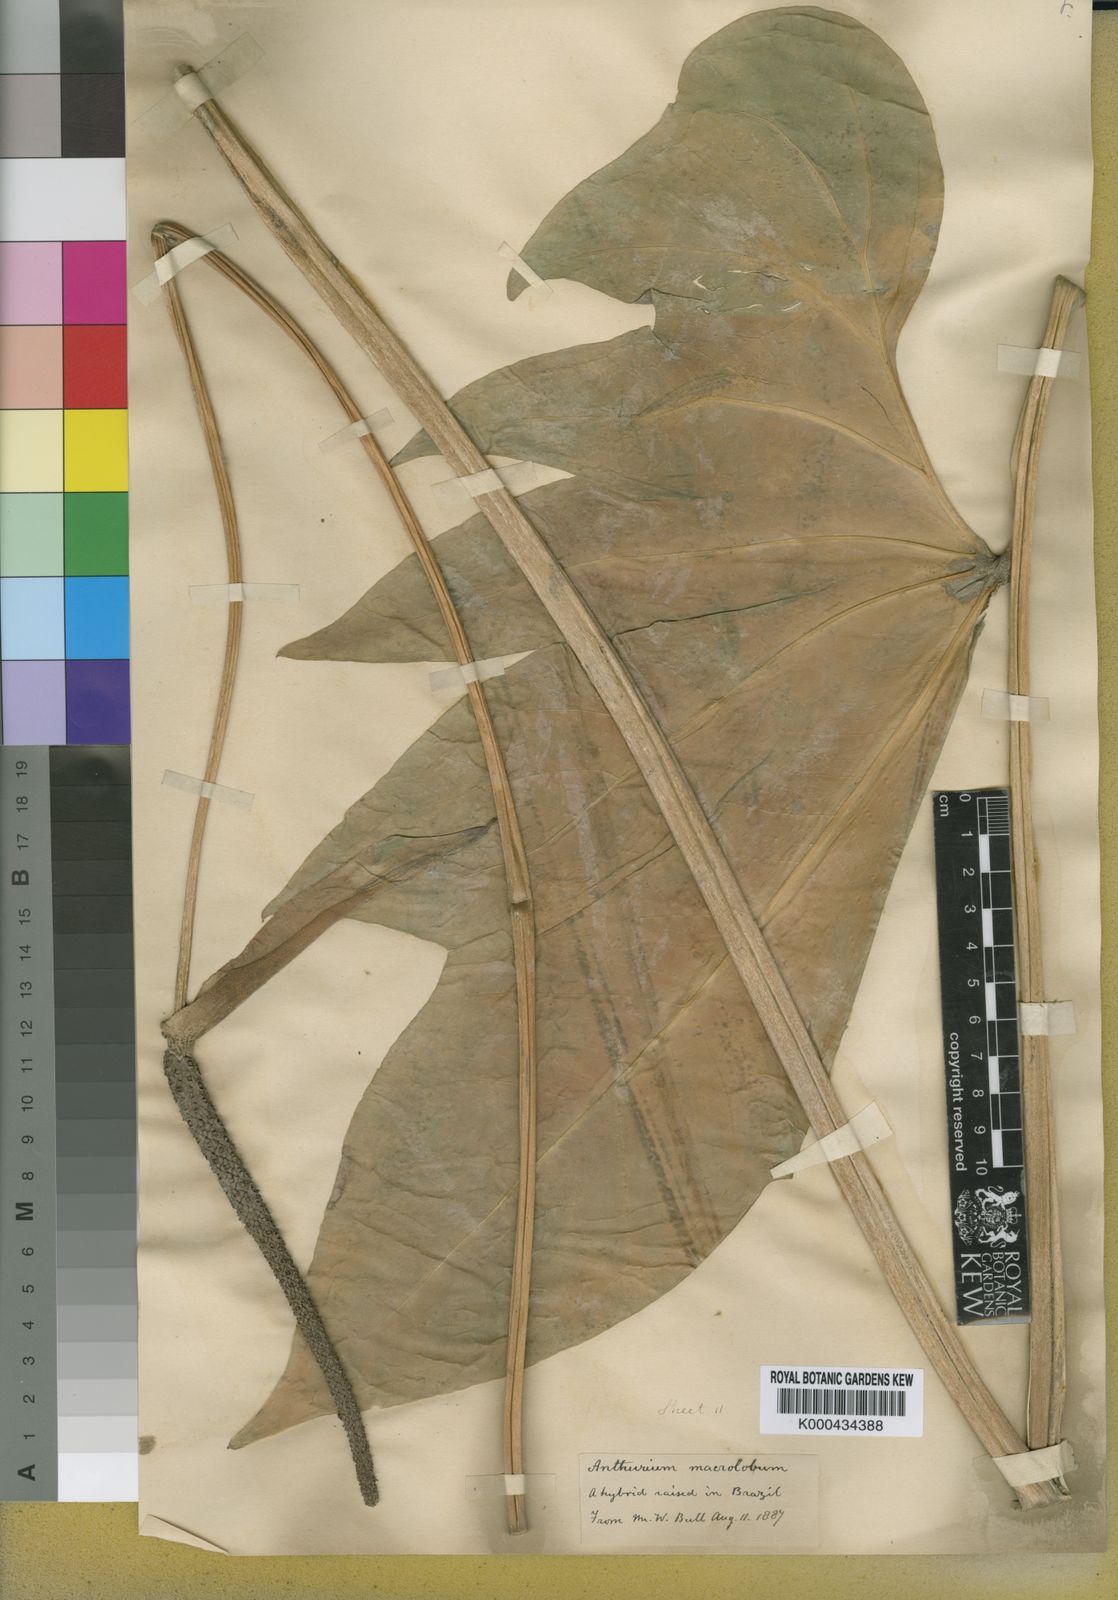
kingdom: Plantae
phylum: Tracheophyta
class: Liliopsida
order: Alismatales
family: Araceae
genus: Anthurium
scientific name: Anthurium leuconeurum
